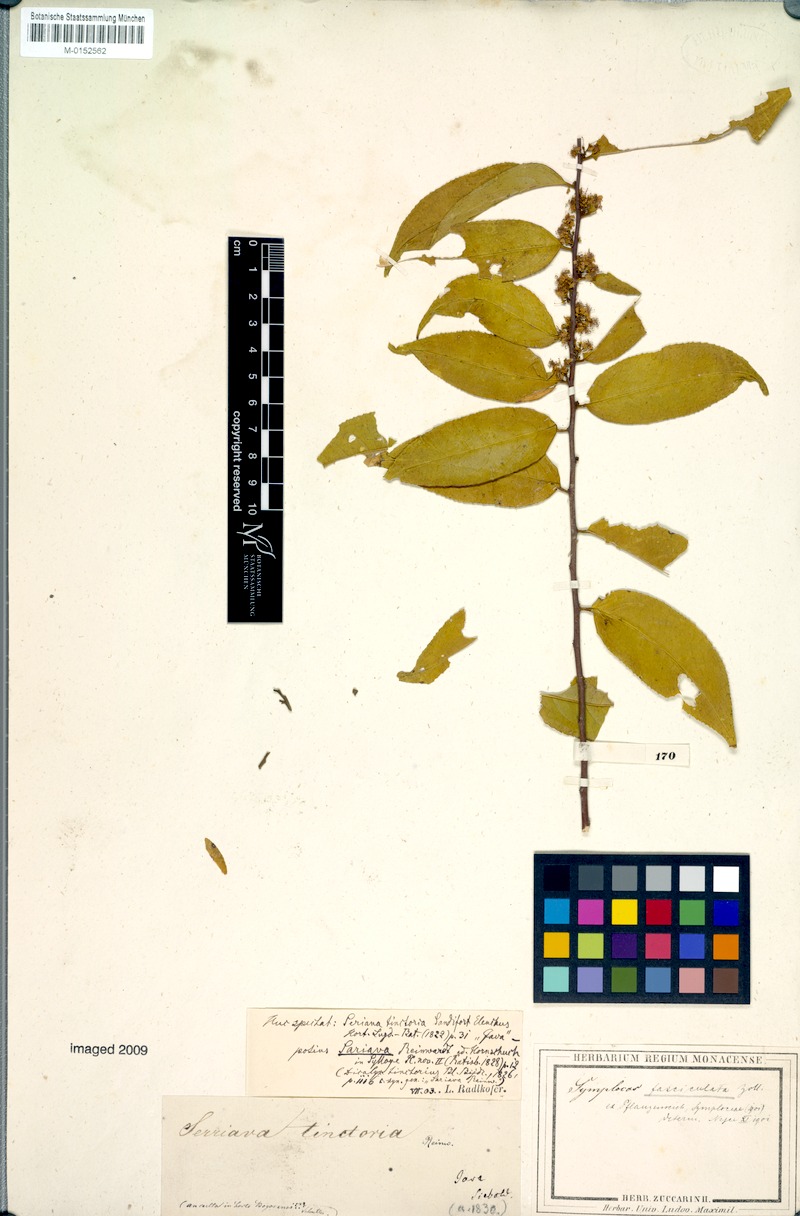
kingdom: Plantae
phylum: Tracheophyta
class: Magnoliopsida
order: Ericales
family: Symplocaceae
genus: Symplocos
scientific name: Symplocos fasciculata
